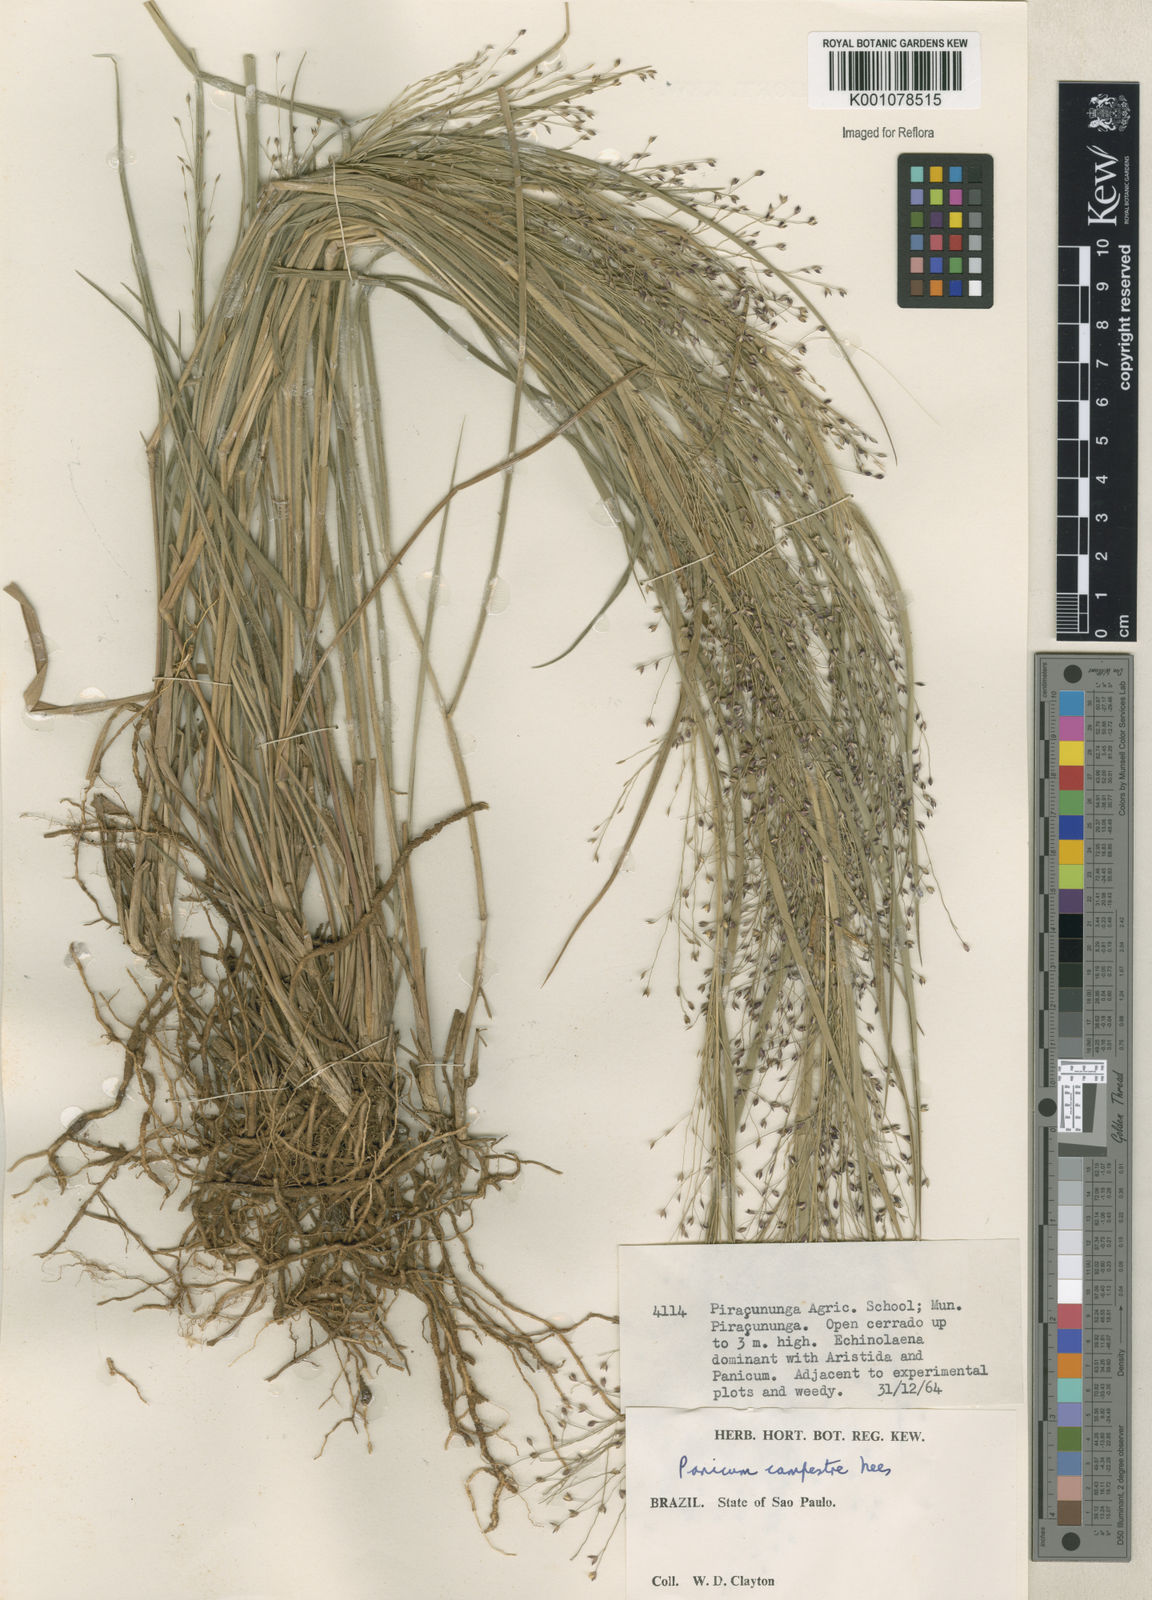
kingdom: Plantae
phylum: Tracheophyta
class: Liliopsida
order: Poales
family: Poaceae
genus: Panicum
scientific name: Panicum campestre
